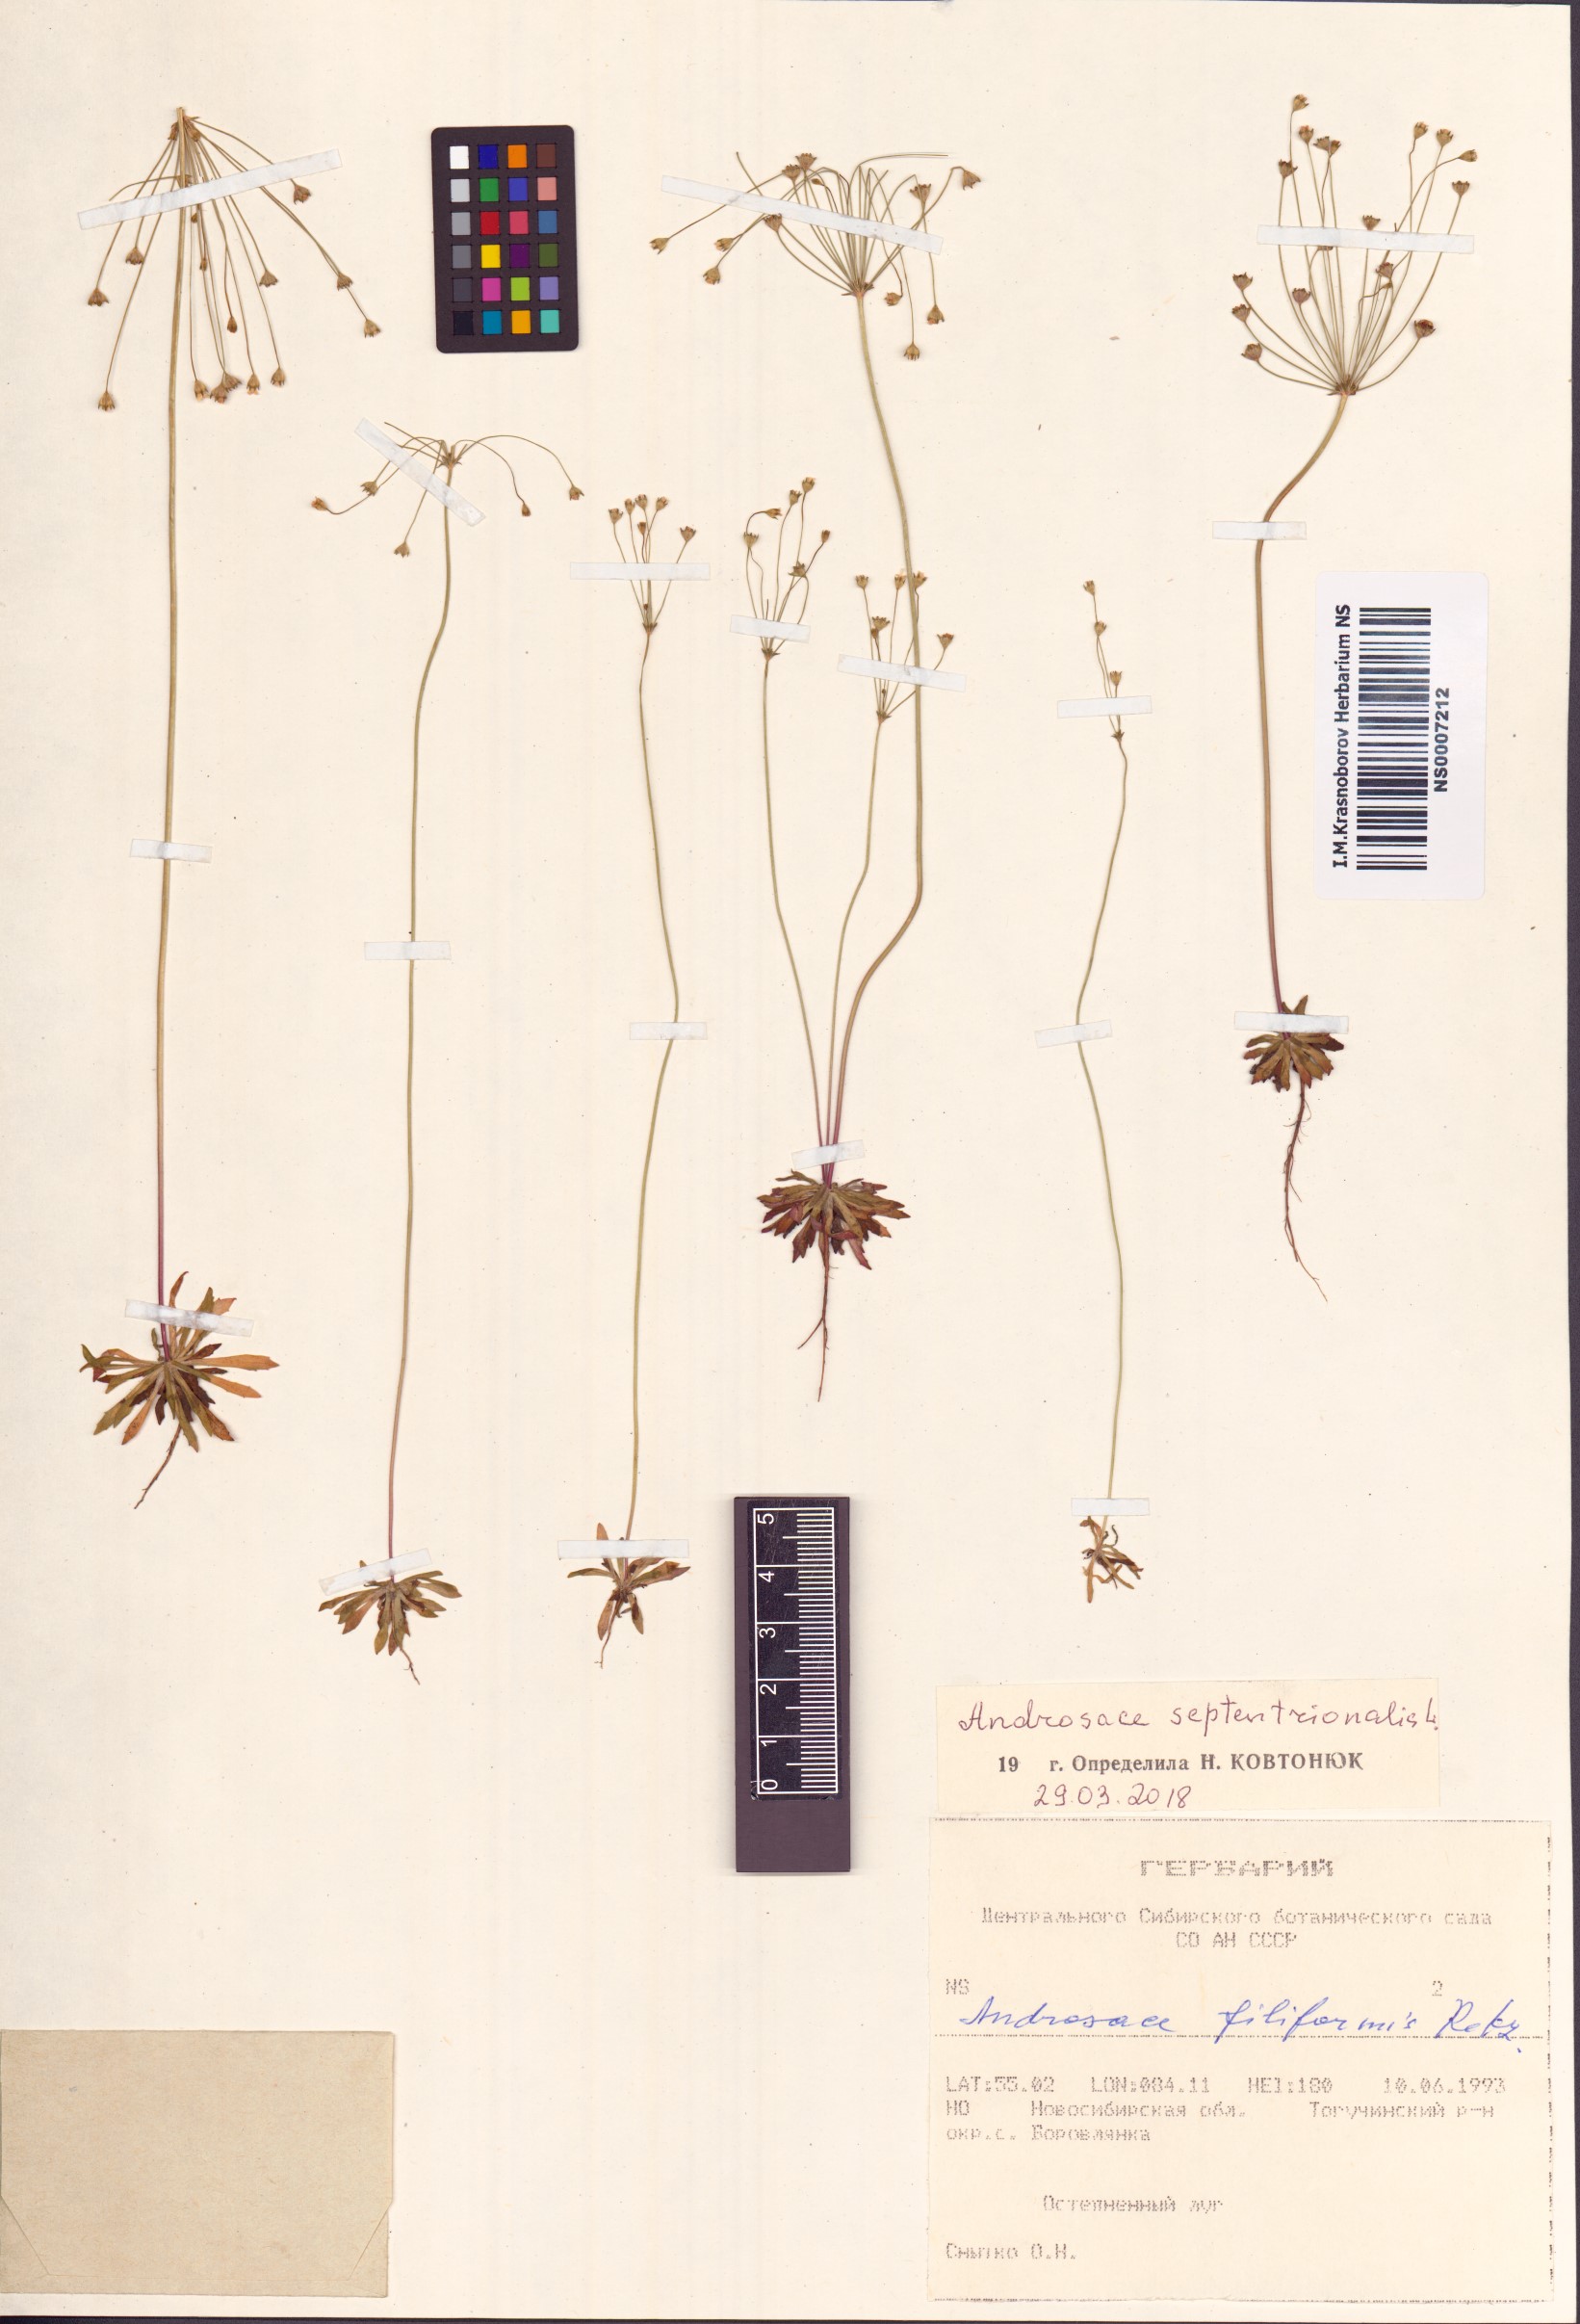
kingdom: Plantae
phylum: Tracheophyta
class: Magnoliopsida
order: Ericales
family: Primulaceae
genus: Androsace
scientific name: Androsace septentrionalis
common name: Hairy northern fairy-candelabra
